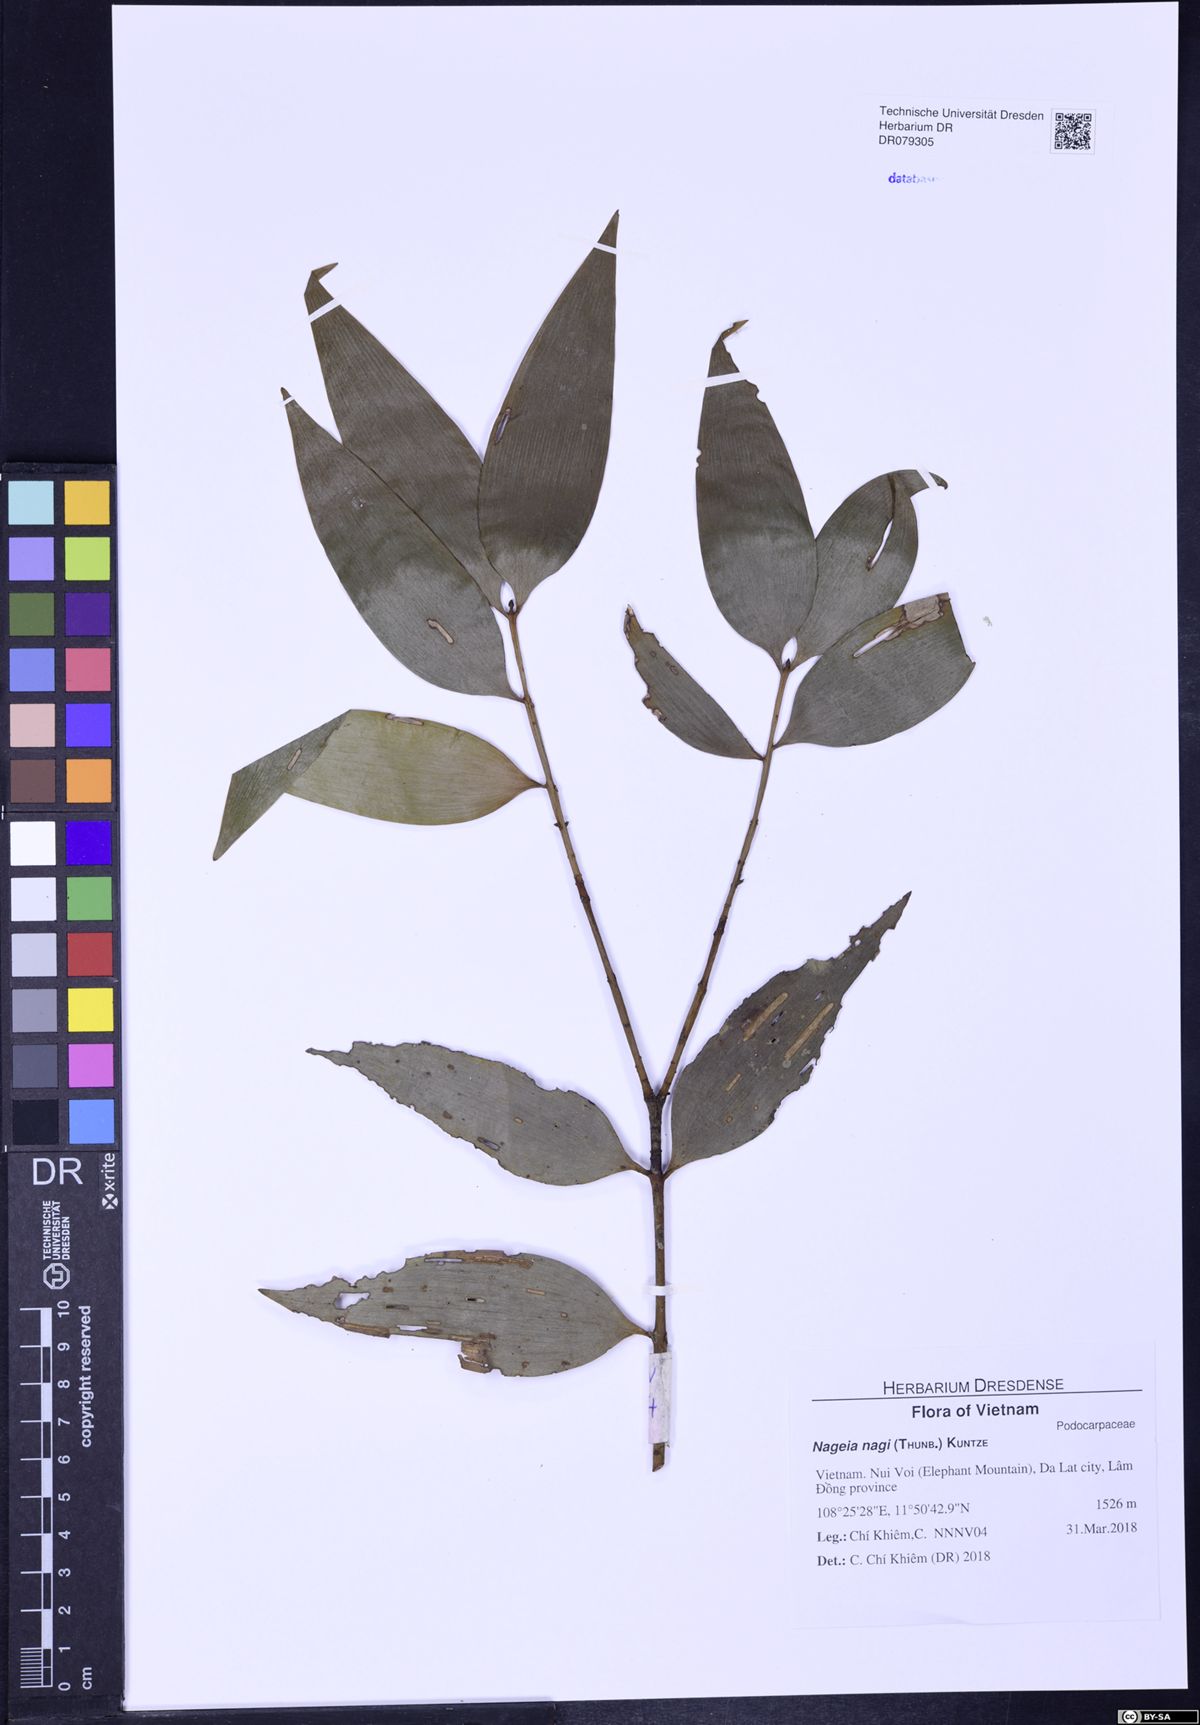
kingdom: Plantae
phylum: Tracheophyta
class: Pinopsida
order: Pinales
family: Podocarpaceae
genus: Nageia
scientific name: Nageia nagi
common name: Kaphal
